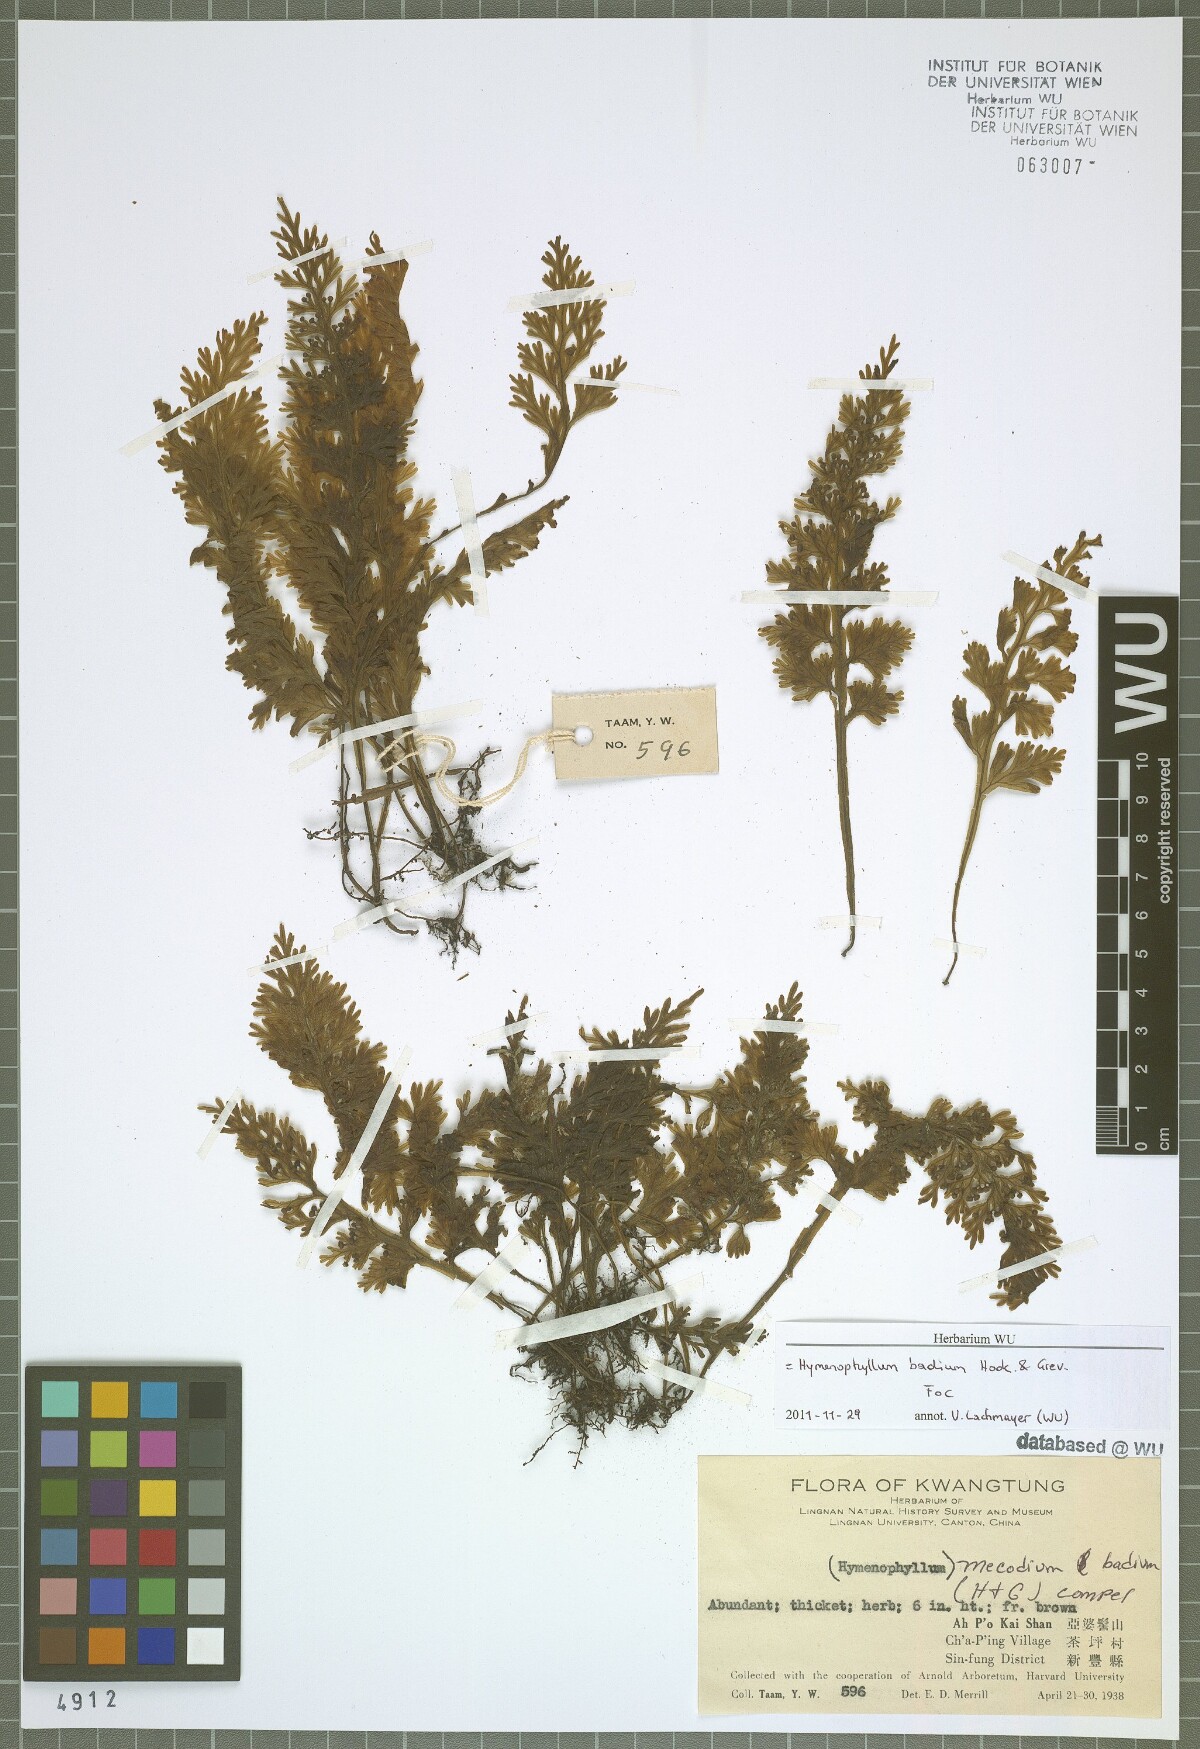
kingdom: Plantae
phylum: Tracheophyta
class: Polypodiopsida
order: Hymenophyllales
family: Hymenophyllaceae
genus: Hymenophyllum
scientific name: Hymenophyllum badium
